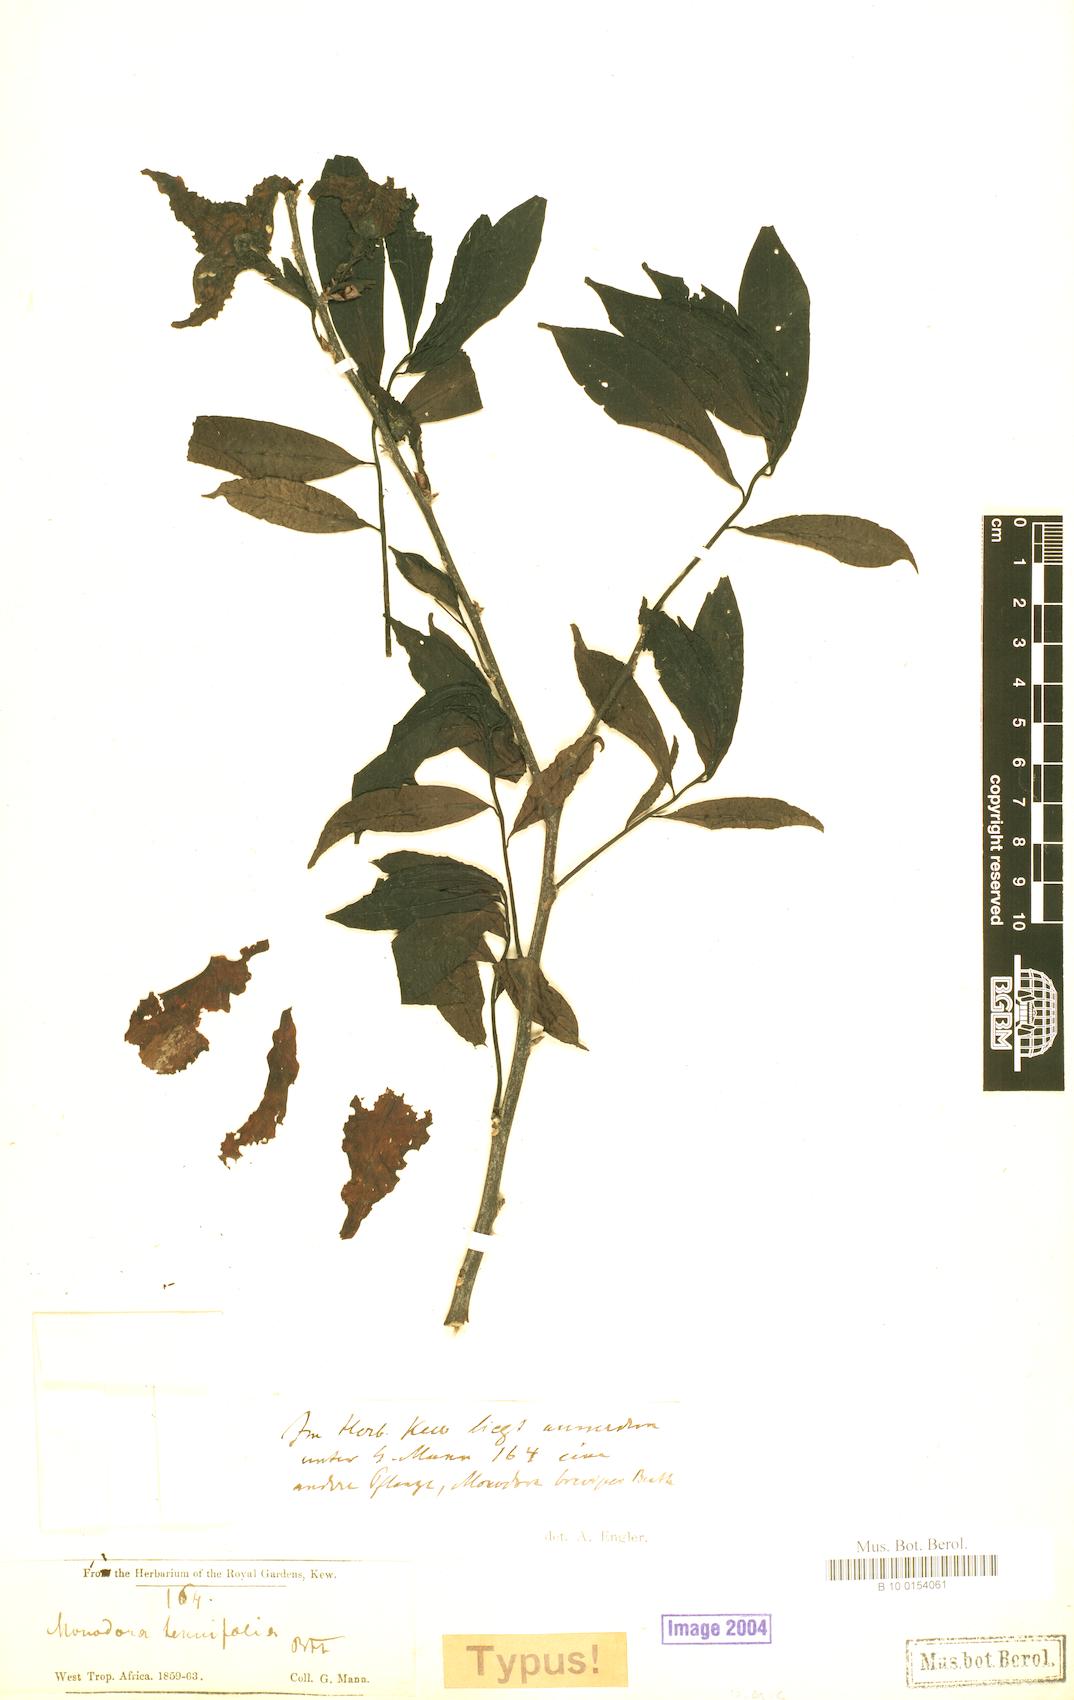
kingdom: Plantae
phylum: Tracheophyta
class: Magnoliopsida
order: Magnoliales
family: Annonaceae
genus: Monodora
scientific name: Monodora tenuifolia
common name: Orchidtree
